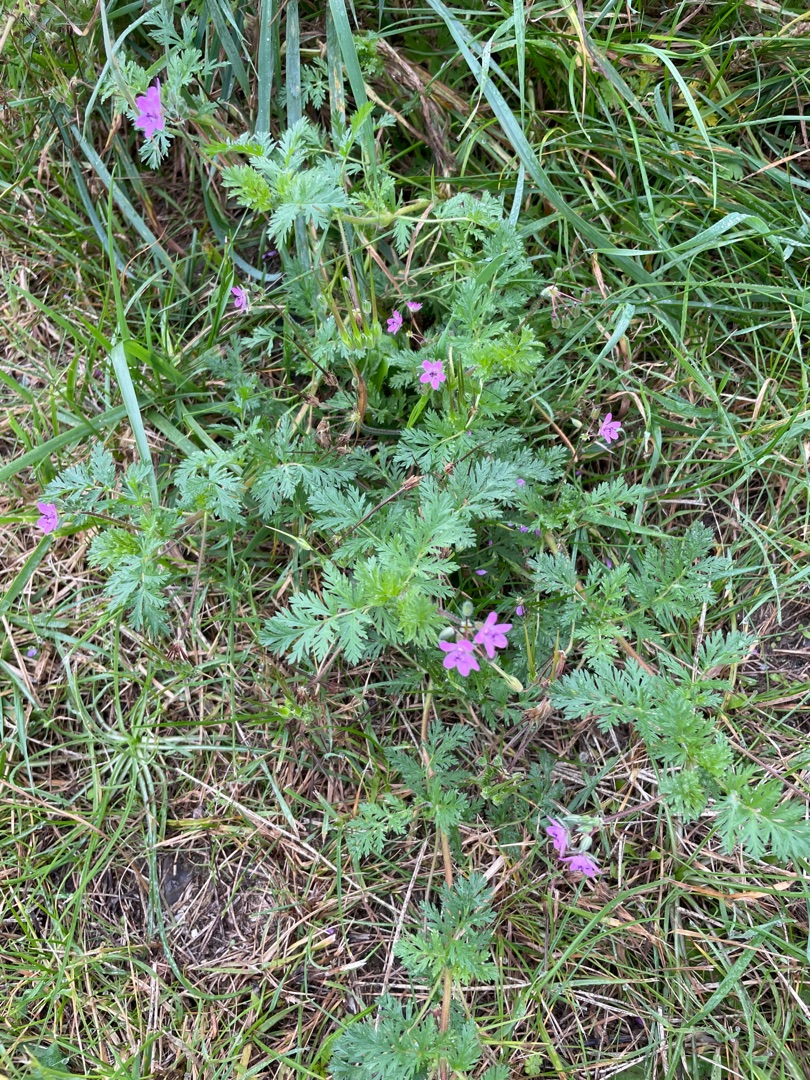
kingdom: Plantae
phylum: Tracheophyta
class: Magnoliopsida
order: Geraniales
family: Geraniaceae
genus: Erodium
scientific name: Erodium cicutarium
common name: Hejrenæb
